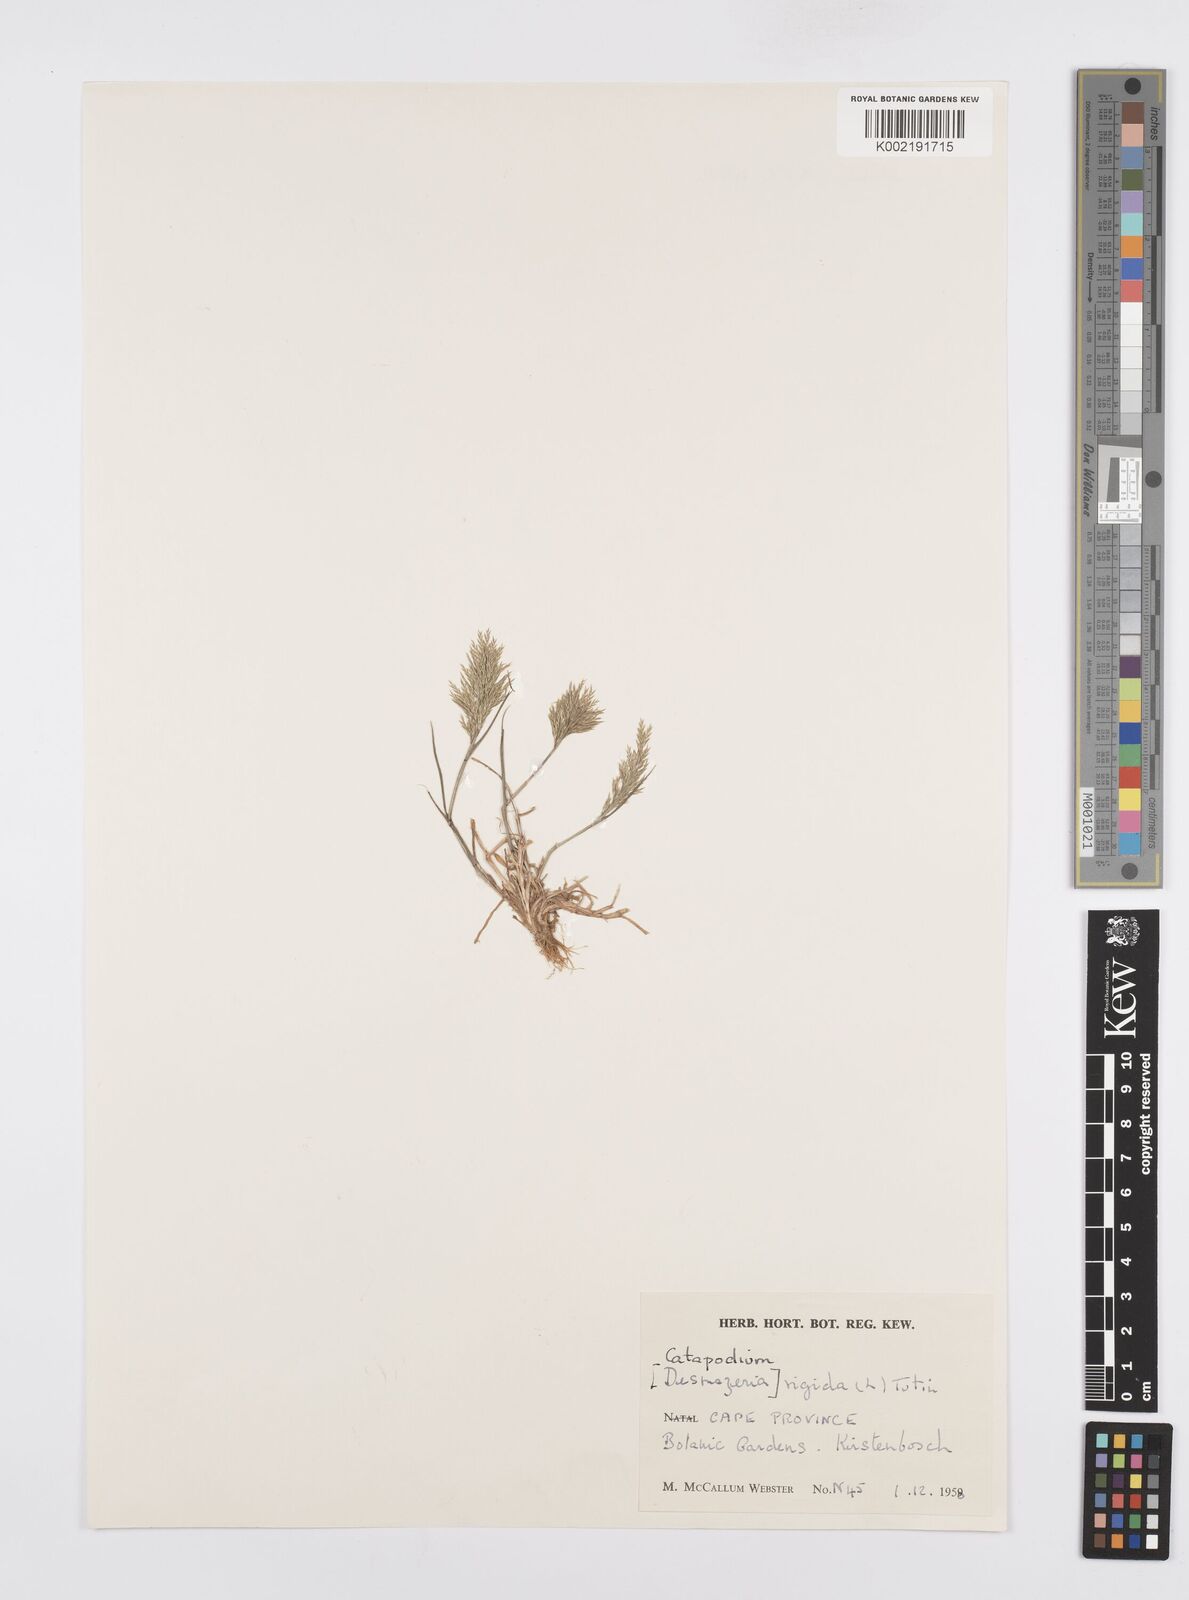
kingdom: Plantae
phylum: Tracheophyta
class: Liliopsida
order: Poales
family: Poaceae
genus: Catapodium
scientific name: Catapodium rigidum
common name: Fern-grass
